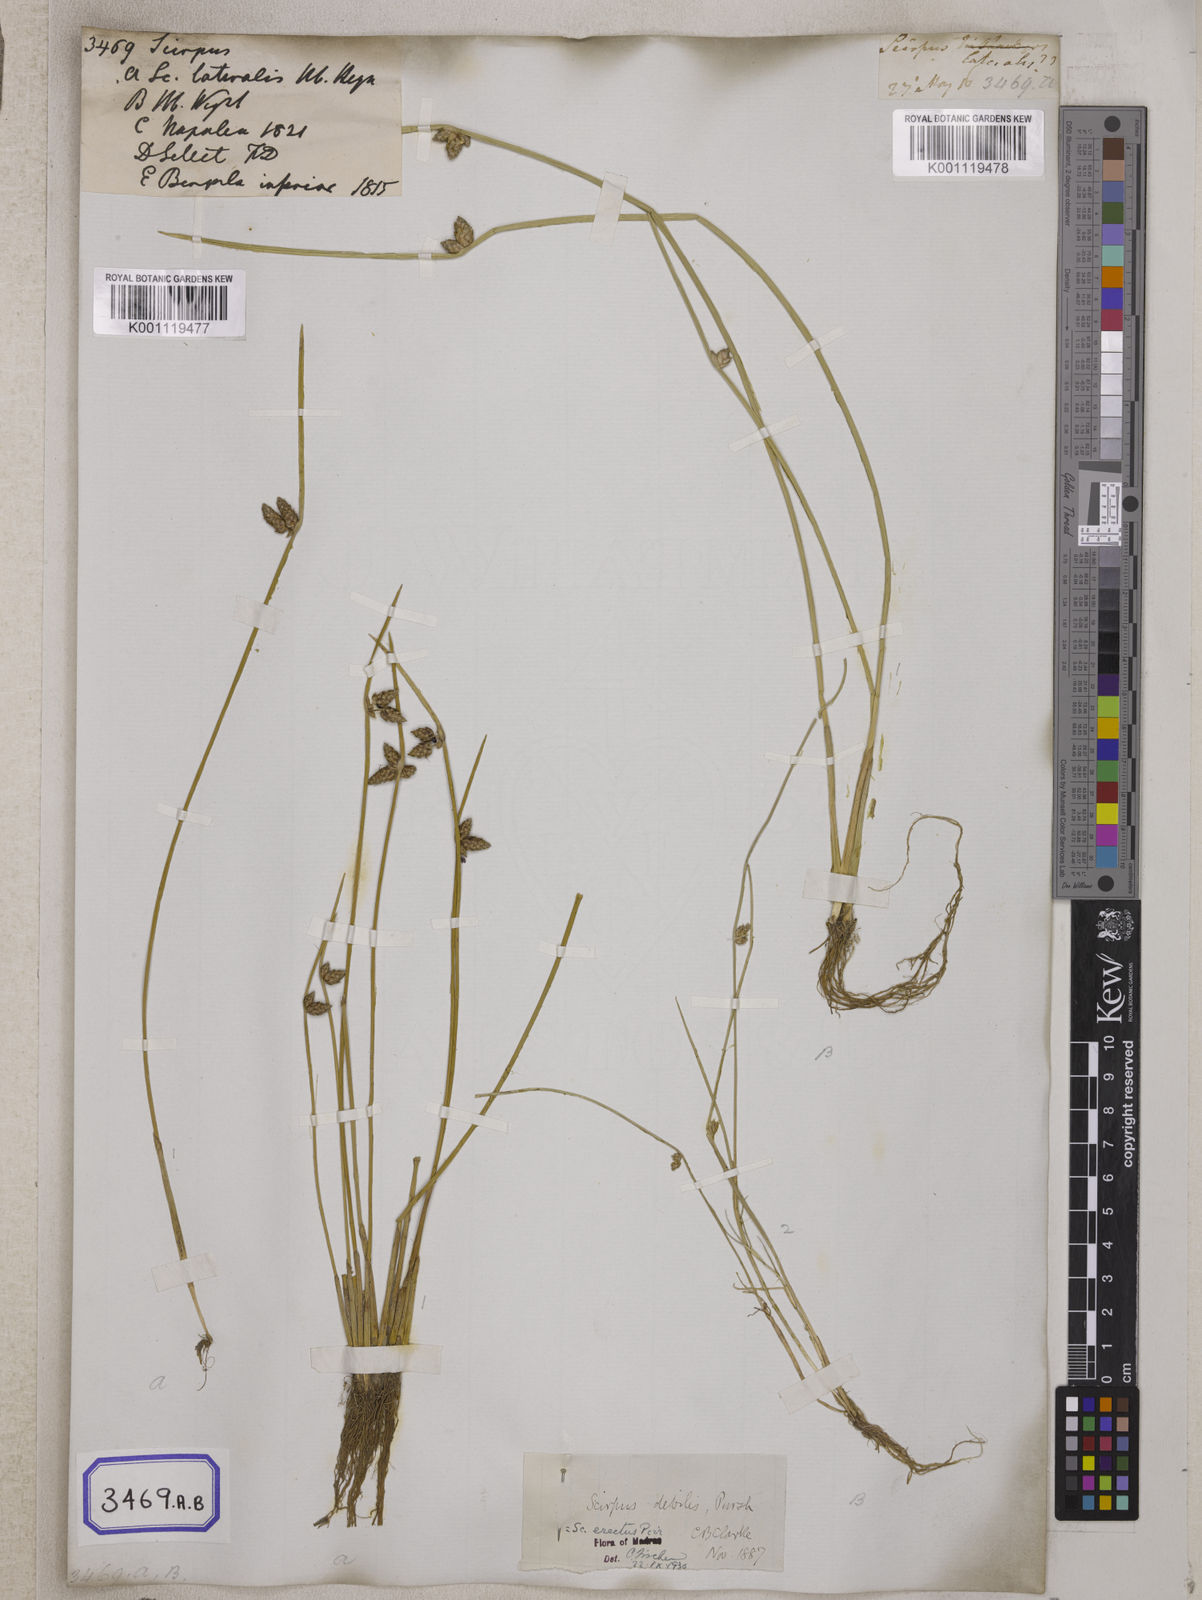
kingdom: Plantae
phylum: Tracheophyta
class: Liliopsida
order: Poales
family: Cyperaceae
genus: Scirpus
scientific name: Scirpus
